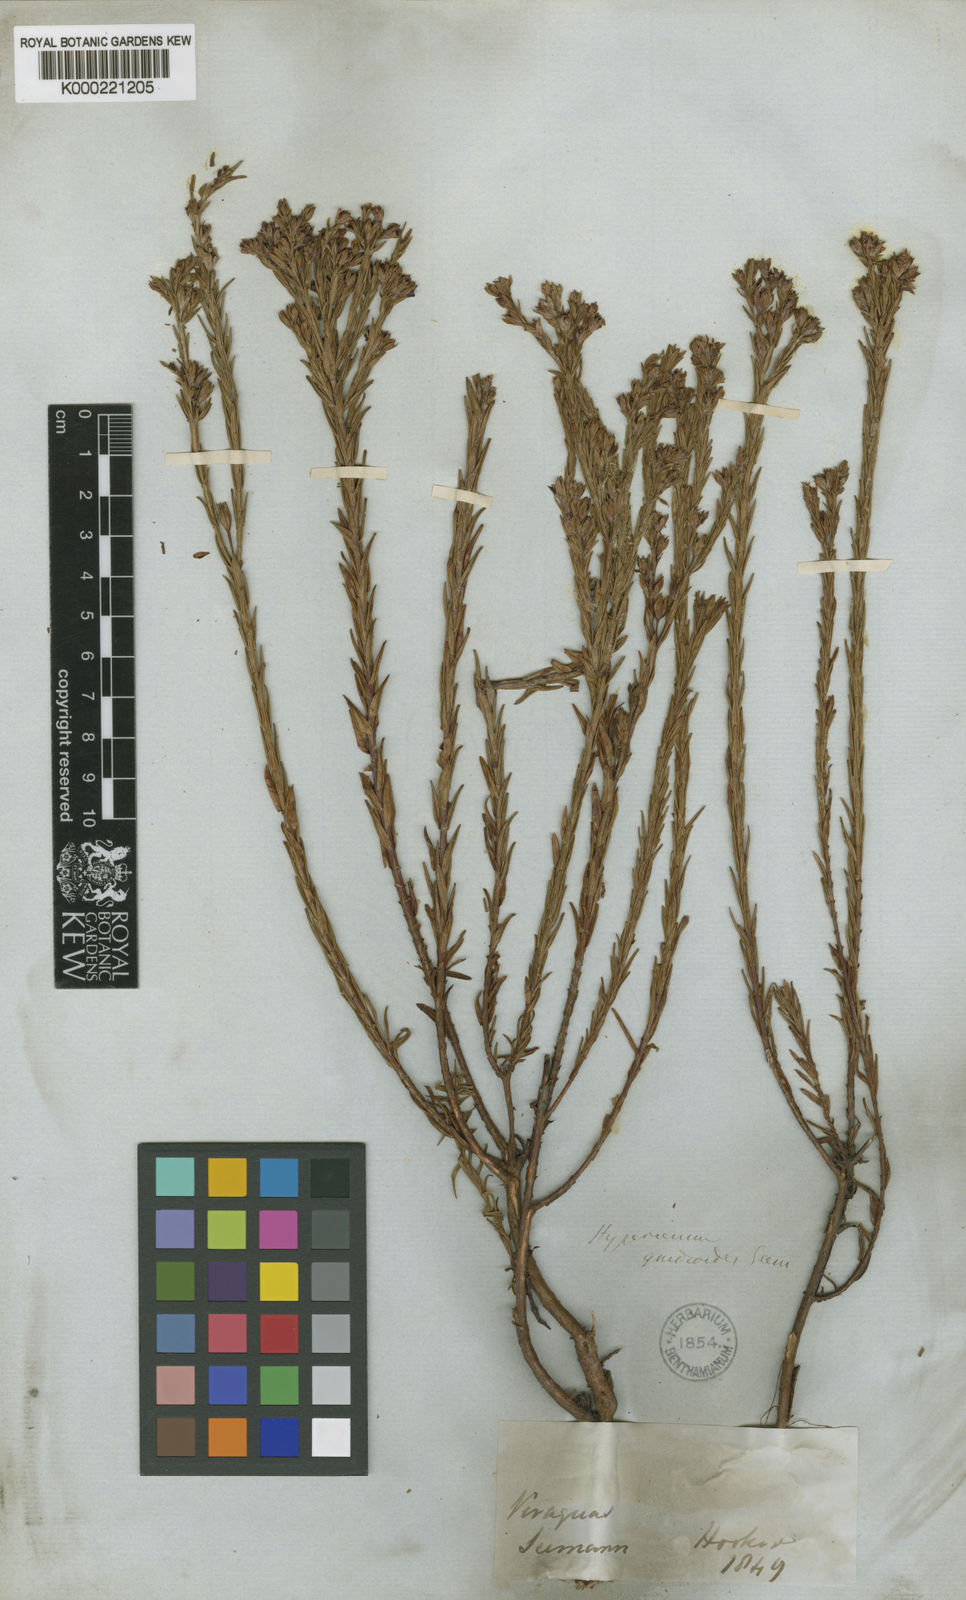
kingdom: Plantae
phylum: Tracheophyta
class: Magnoliopsida
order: Malpighiales
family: Hypericaceae
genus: Hypericum
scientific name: Hypericum gnidioides
